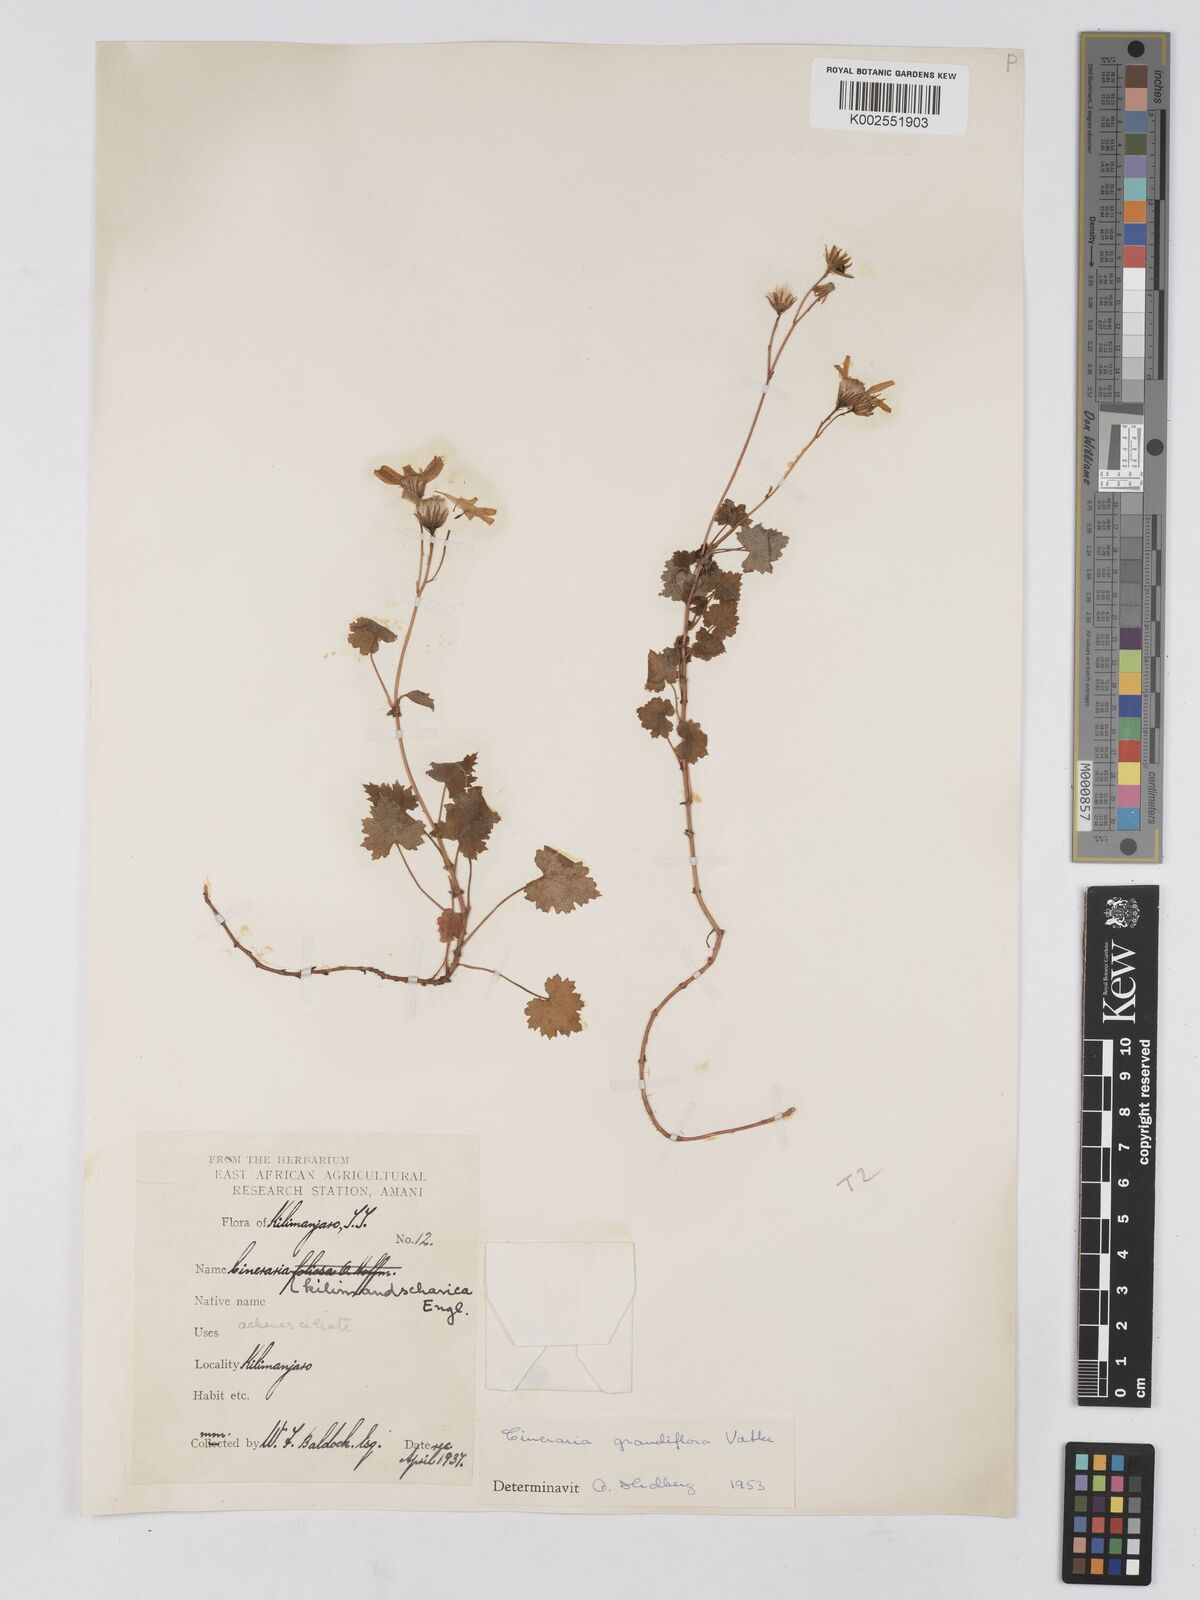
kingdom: Plantae
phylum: Tracheophyta
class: Magnoliopsida
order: Asterales
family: Asteraceae
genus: Cineraria
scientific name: Cineraria deltoidea
